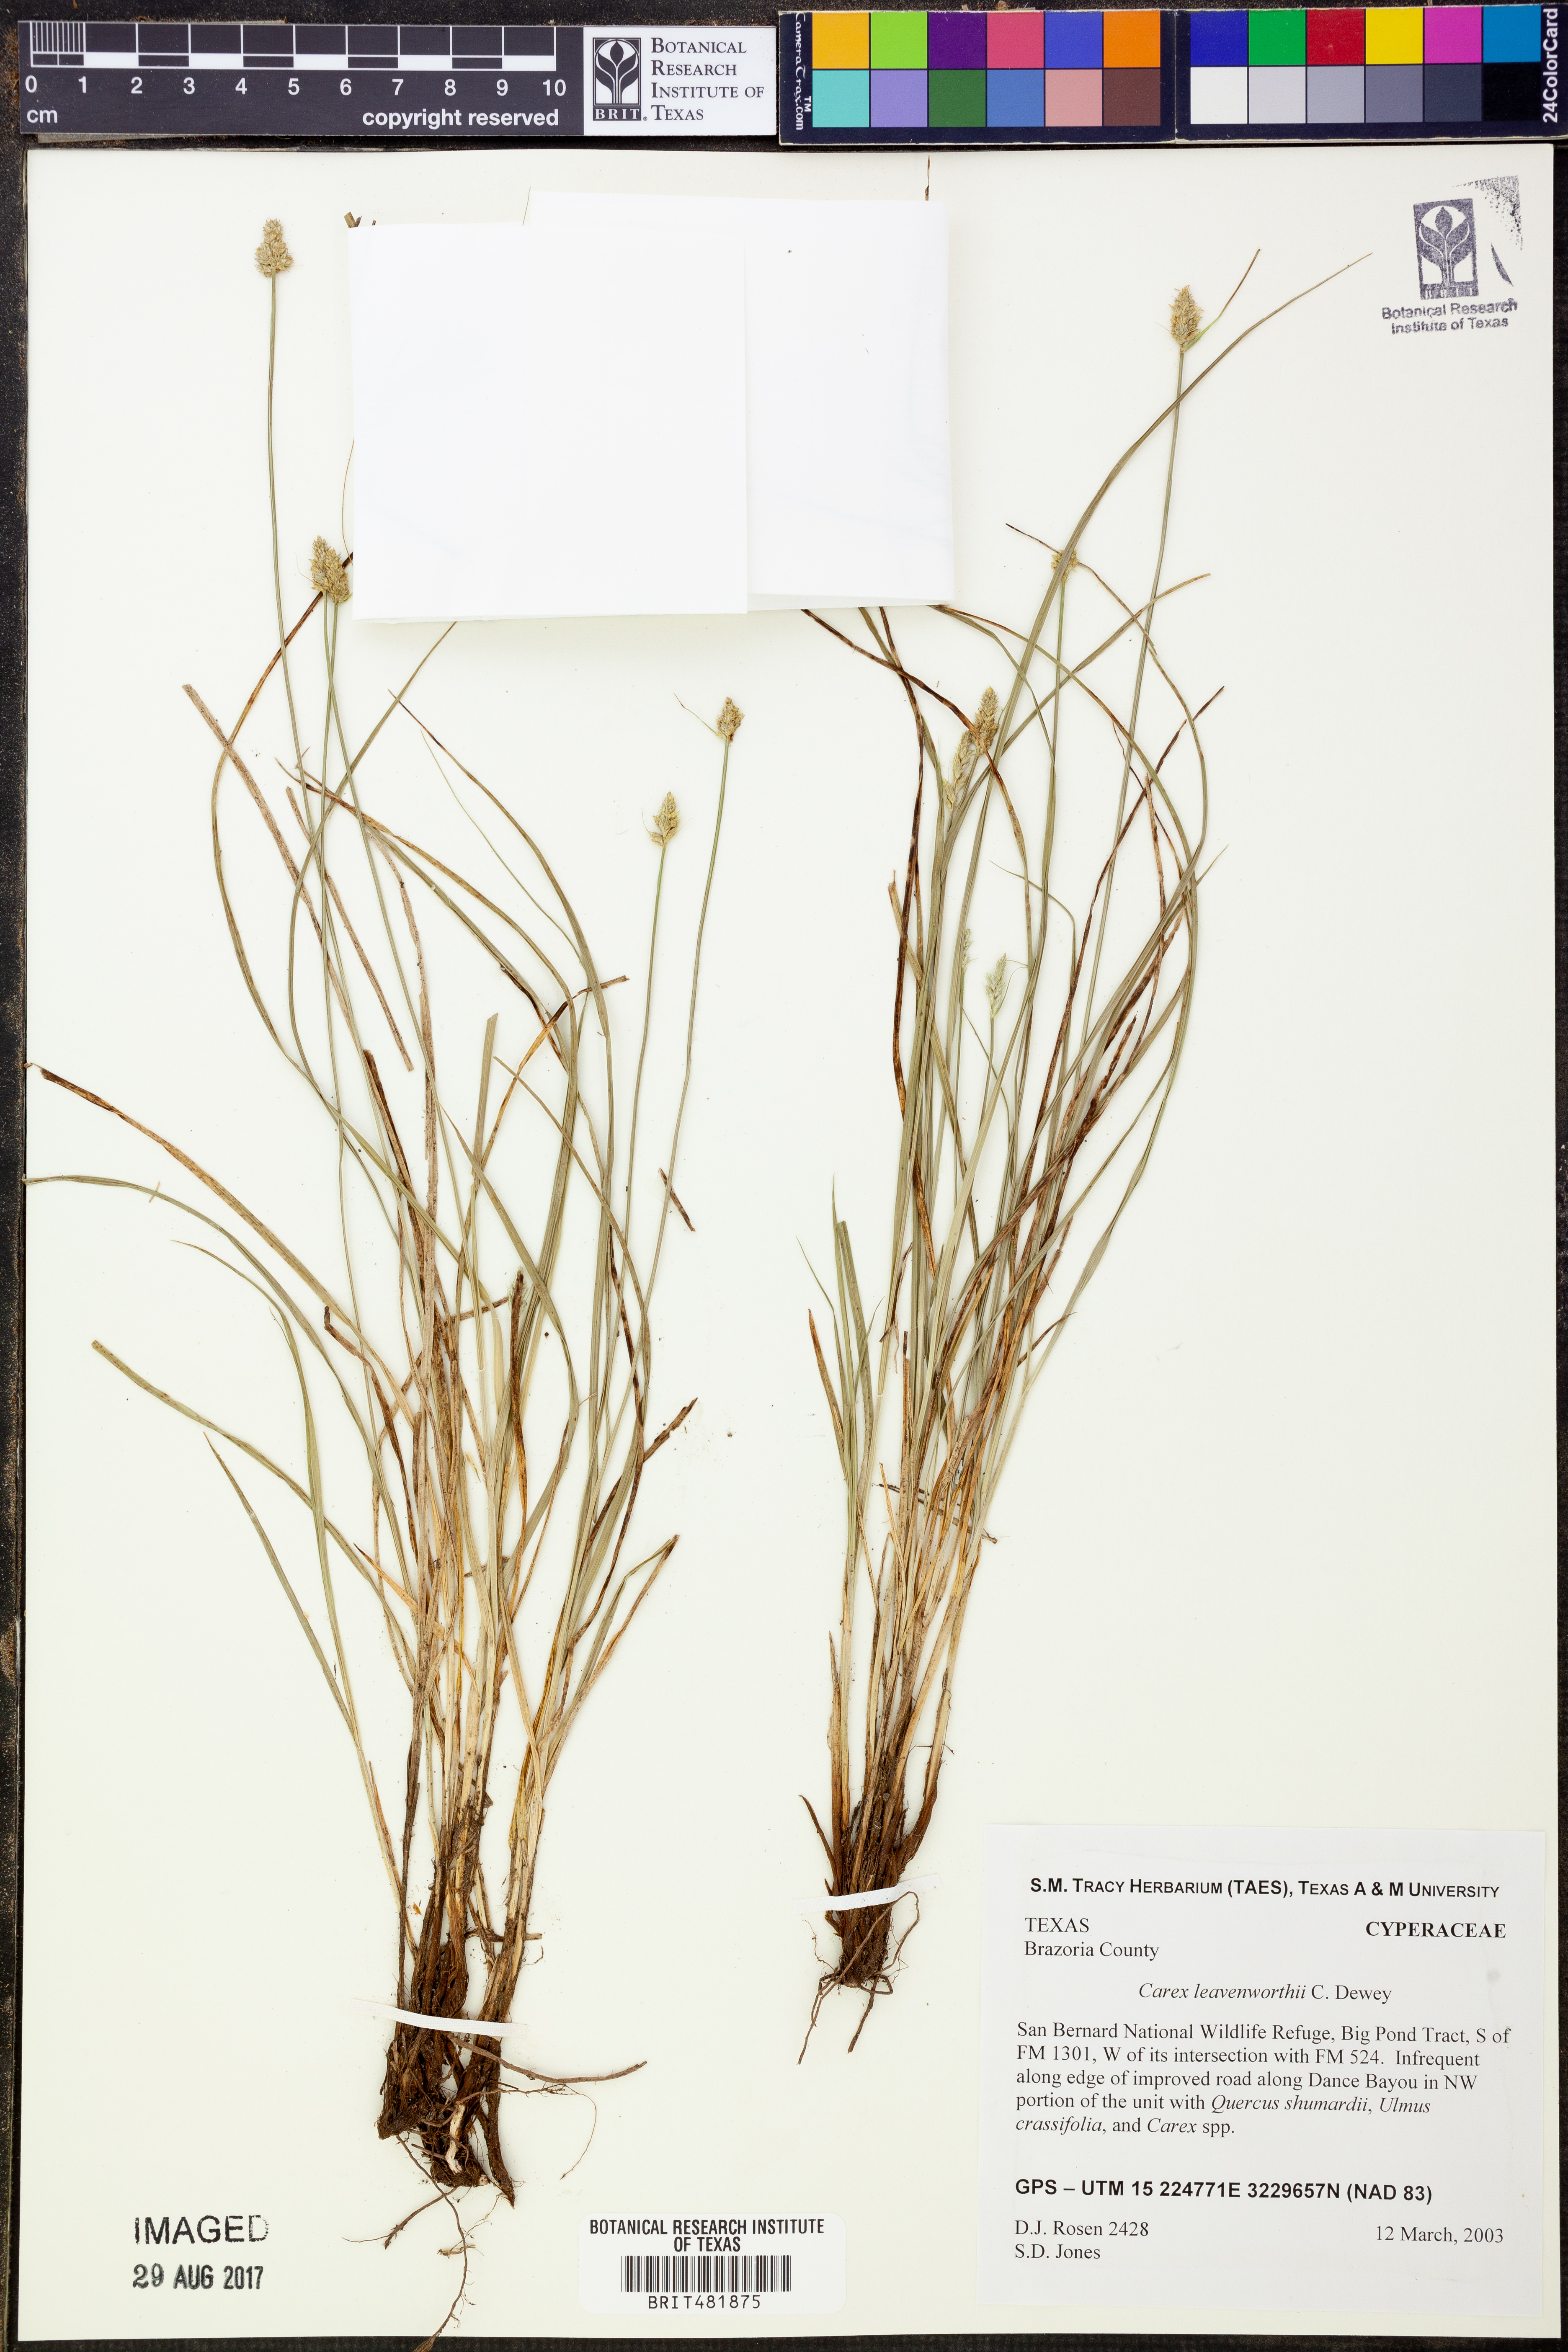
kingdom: Plantae
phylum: Tracheophyta
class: Liliopsida
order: Poales
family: Cyperaceae
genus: Carex
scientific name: Carex leavenworthii
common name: Leavenworth's bracted sedge
